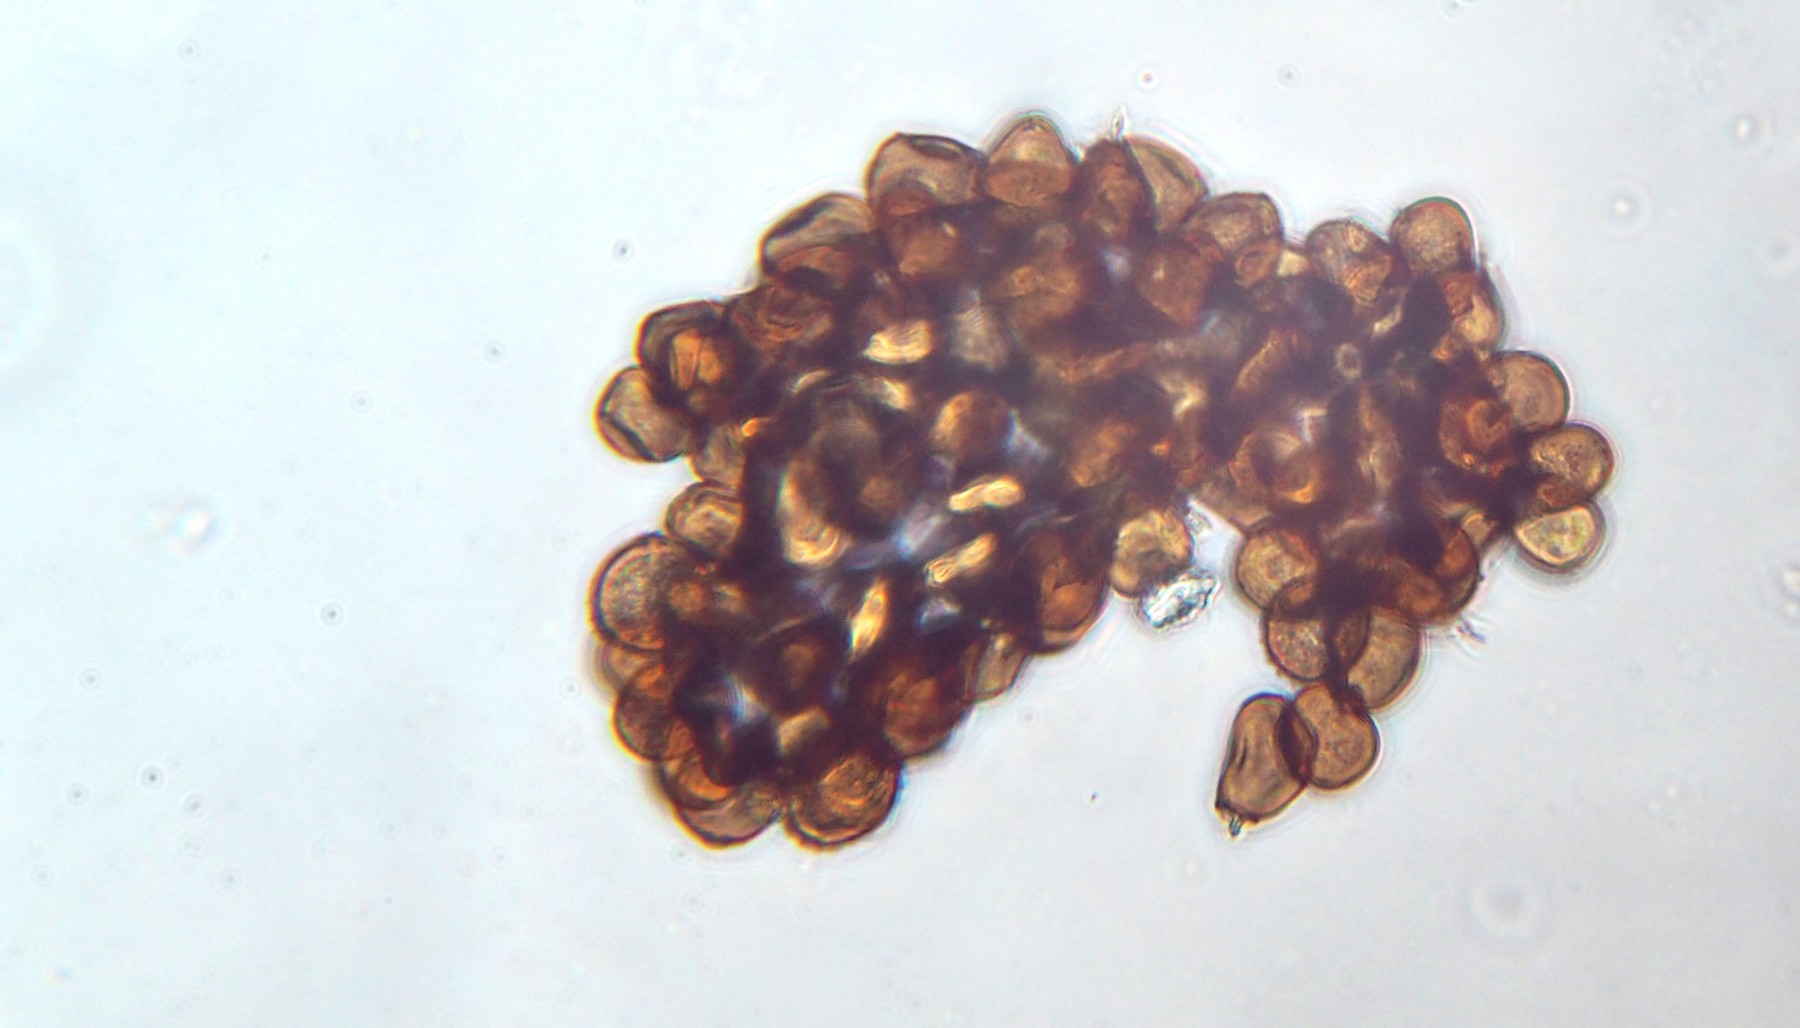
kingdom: Fungi
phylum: Basidiomycota
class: Pucciniomycetes
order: Pucciniales
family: Pucciniaceae
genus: Uromyces
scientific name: Uromyces rumicis
